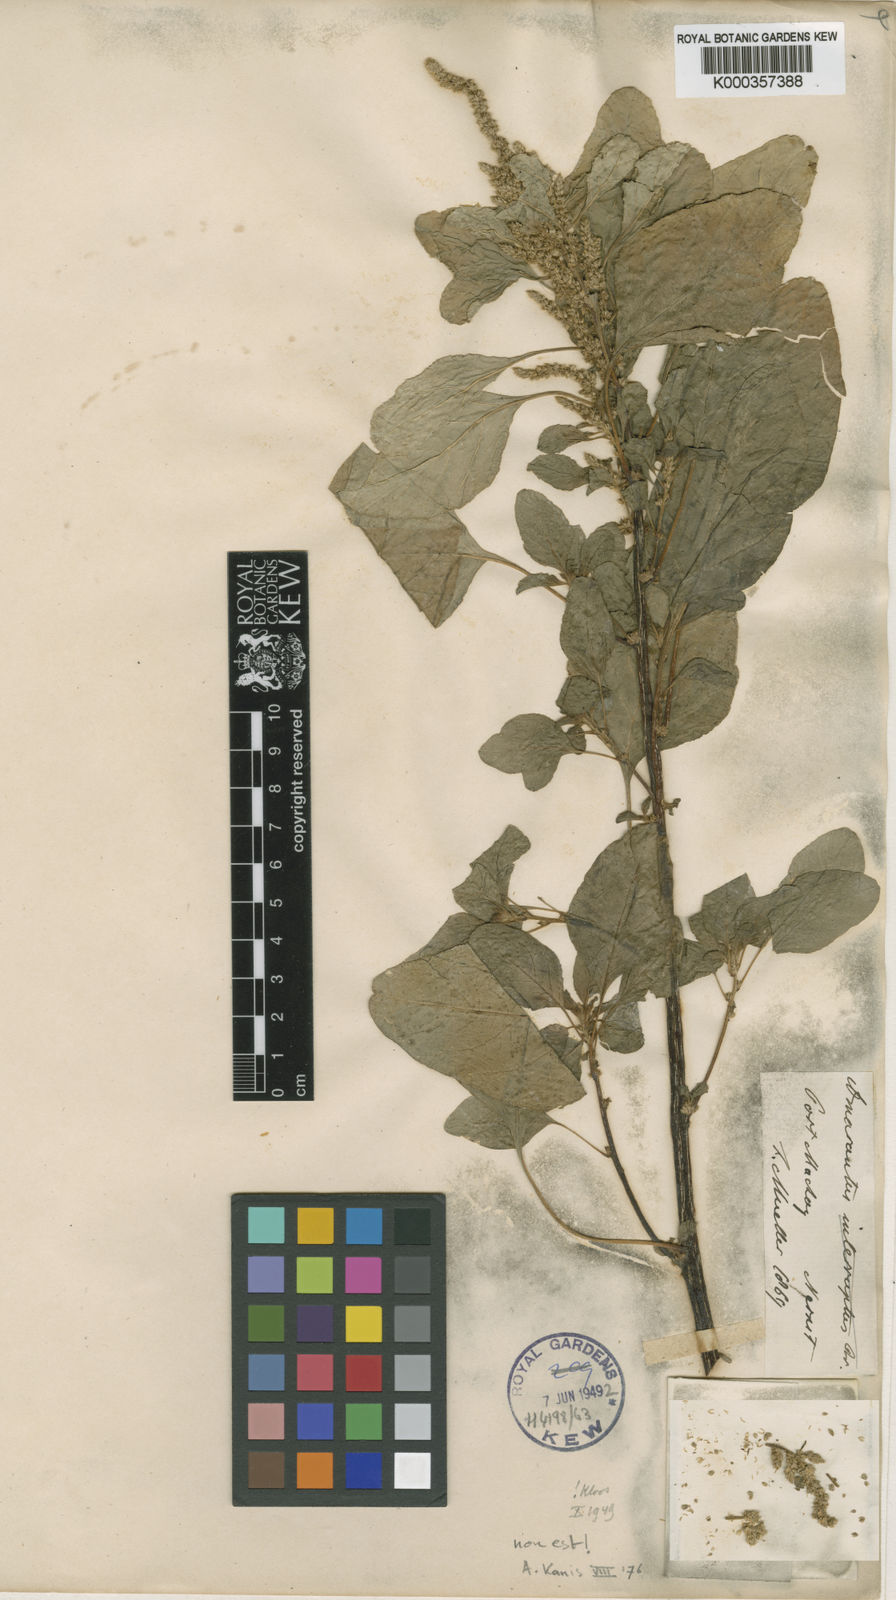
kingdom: Plantae
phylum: Tracheophyta
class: Magnoliopsida
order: Caryophyllales
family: Amaranthaceae
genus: Amaranthus
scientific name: Amaranthus interruptus
